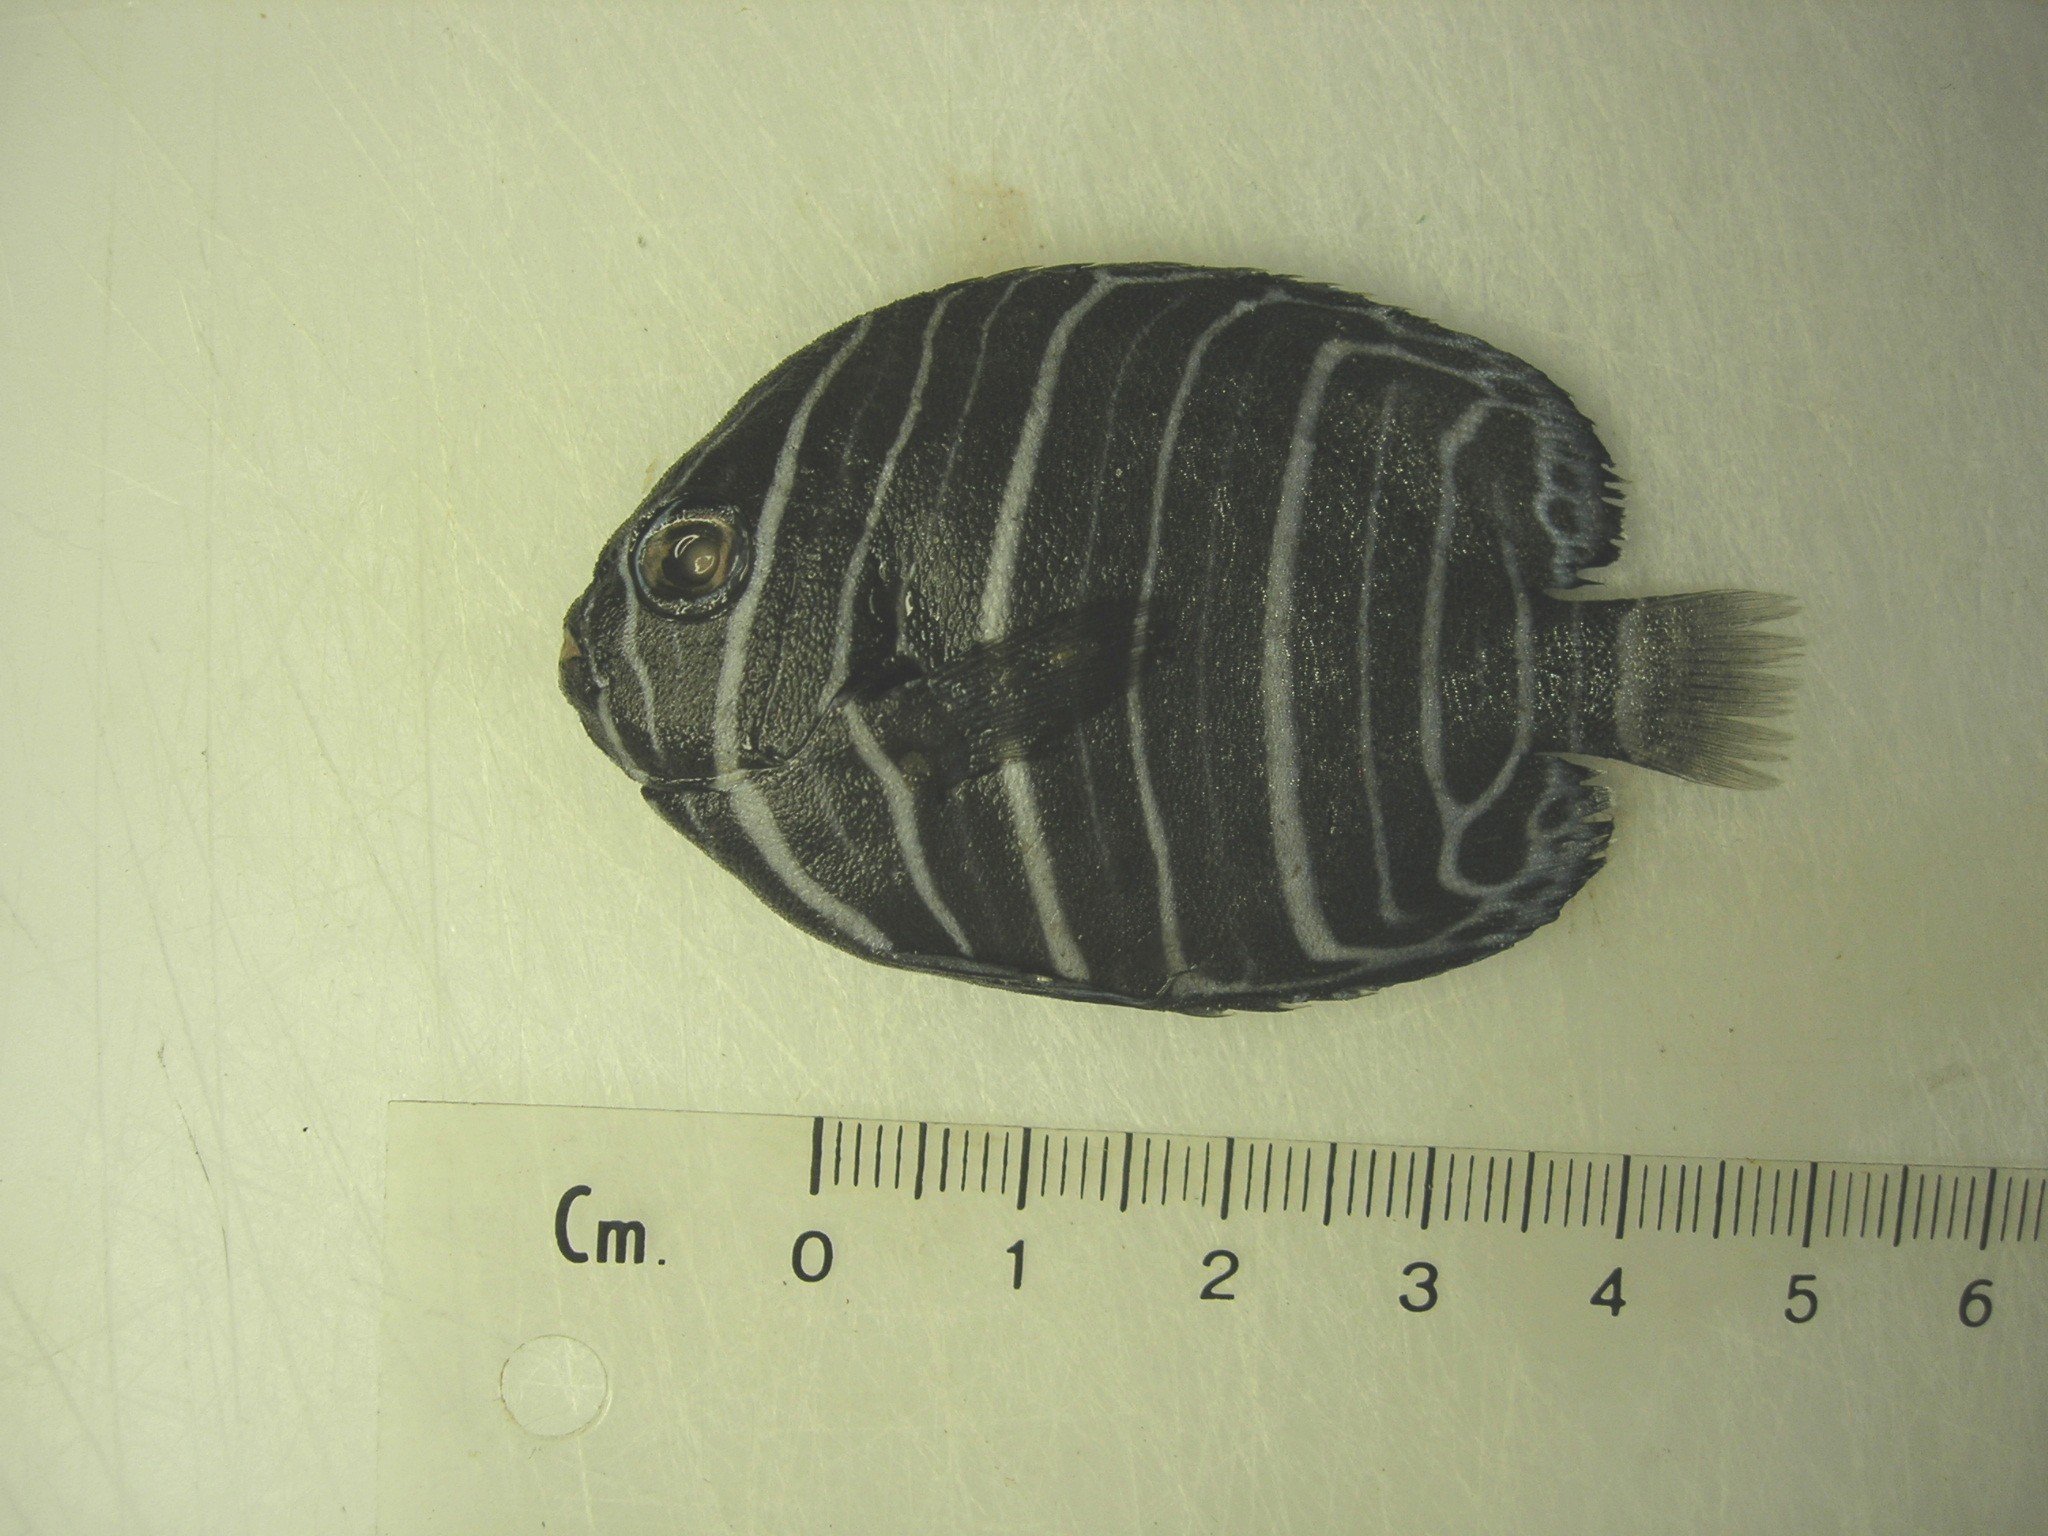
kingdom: Animalia
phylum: Chordata
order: Perciformes
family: Pomacanthidae
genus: Pomacanthus
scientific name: Pomacanthus rhomboides
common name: Old woman
